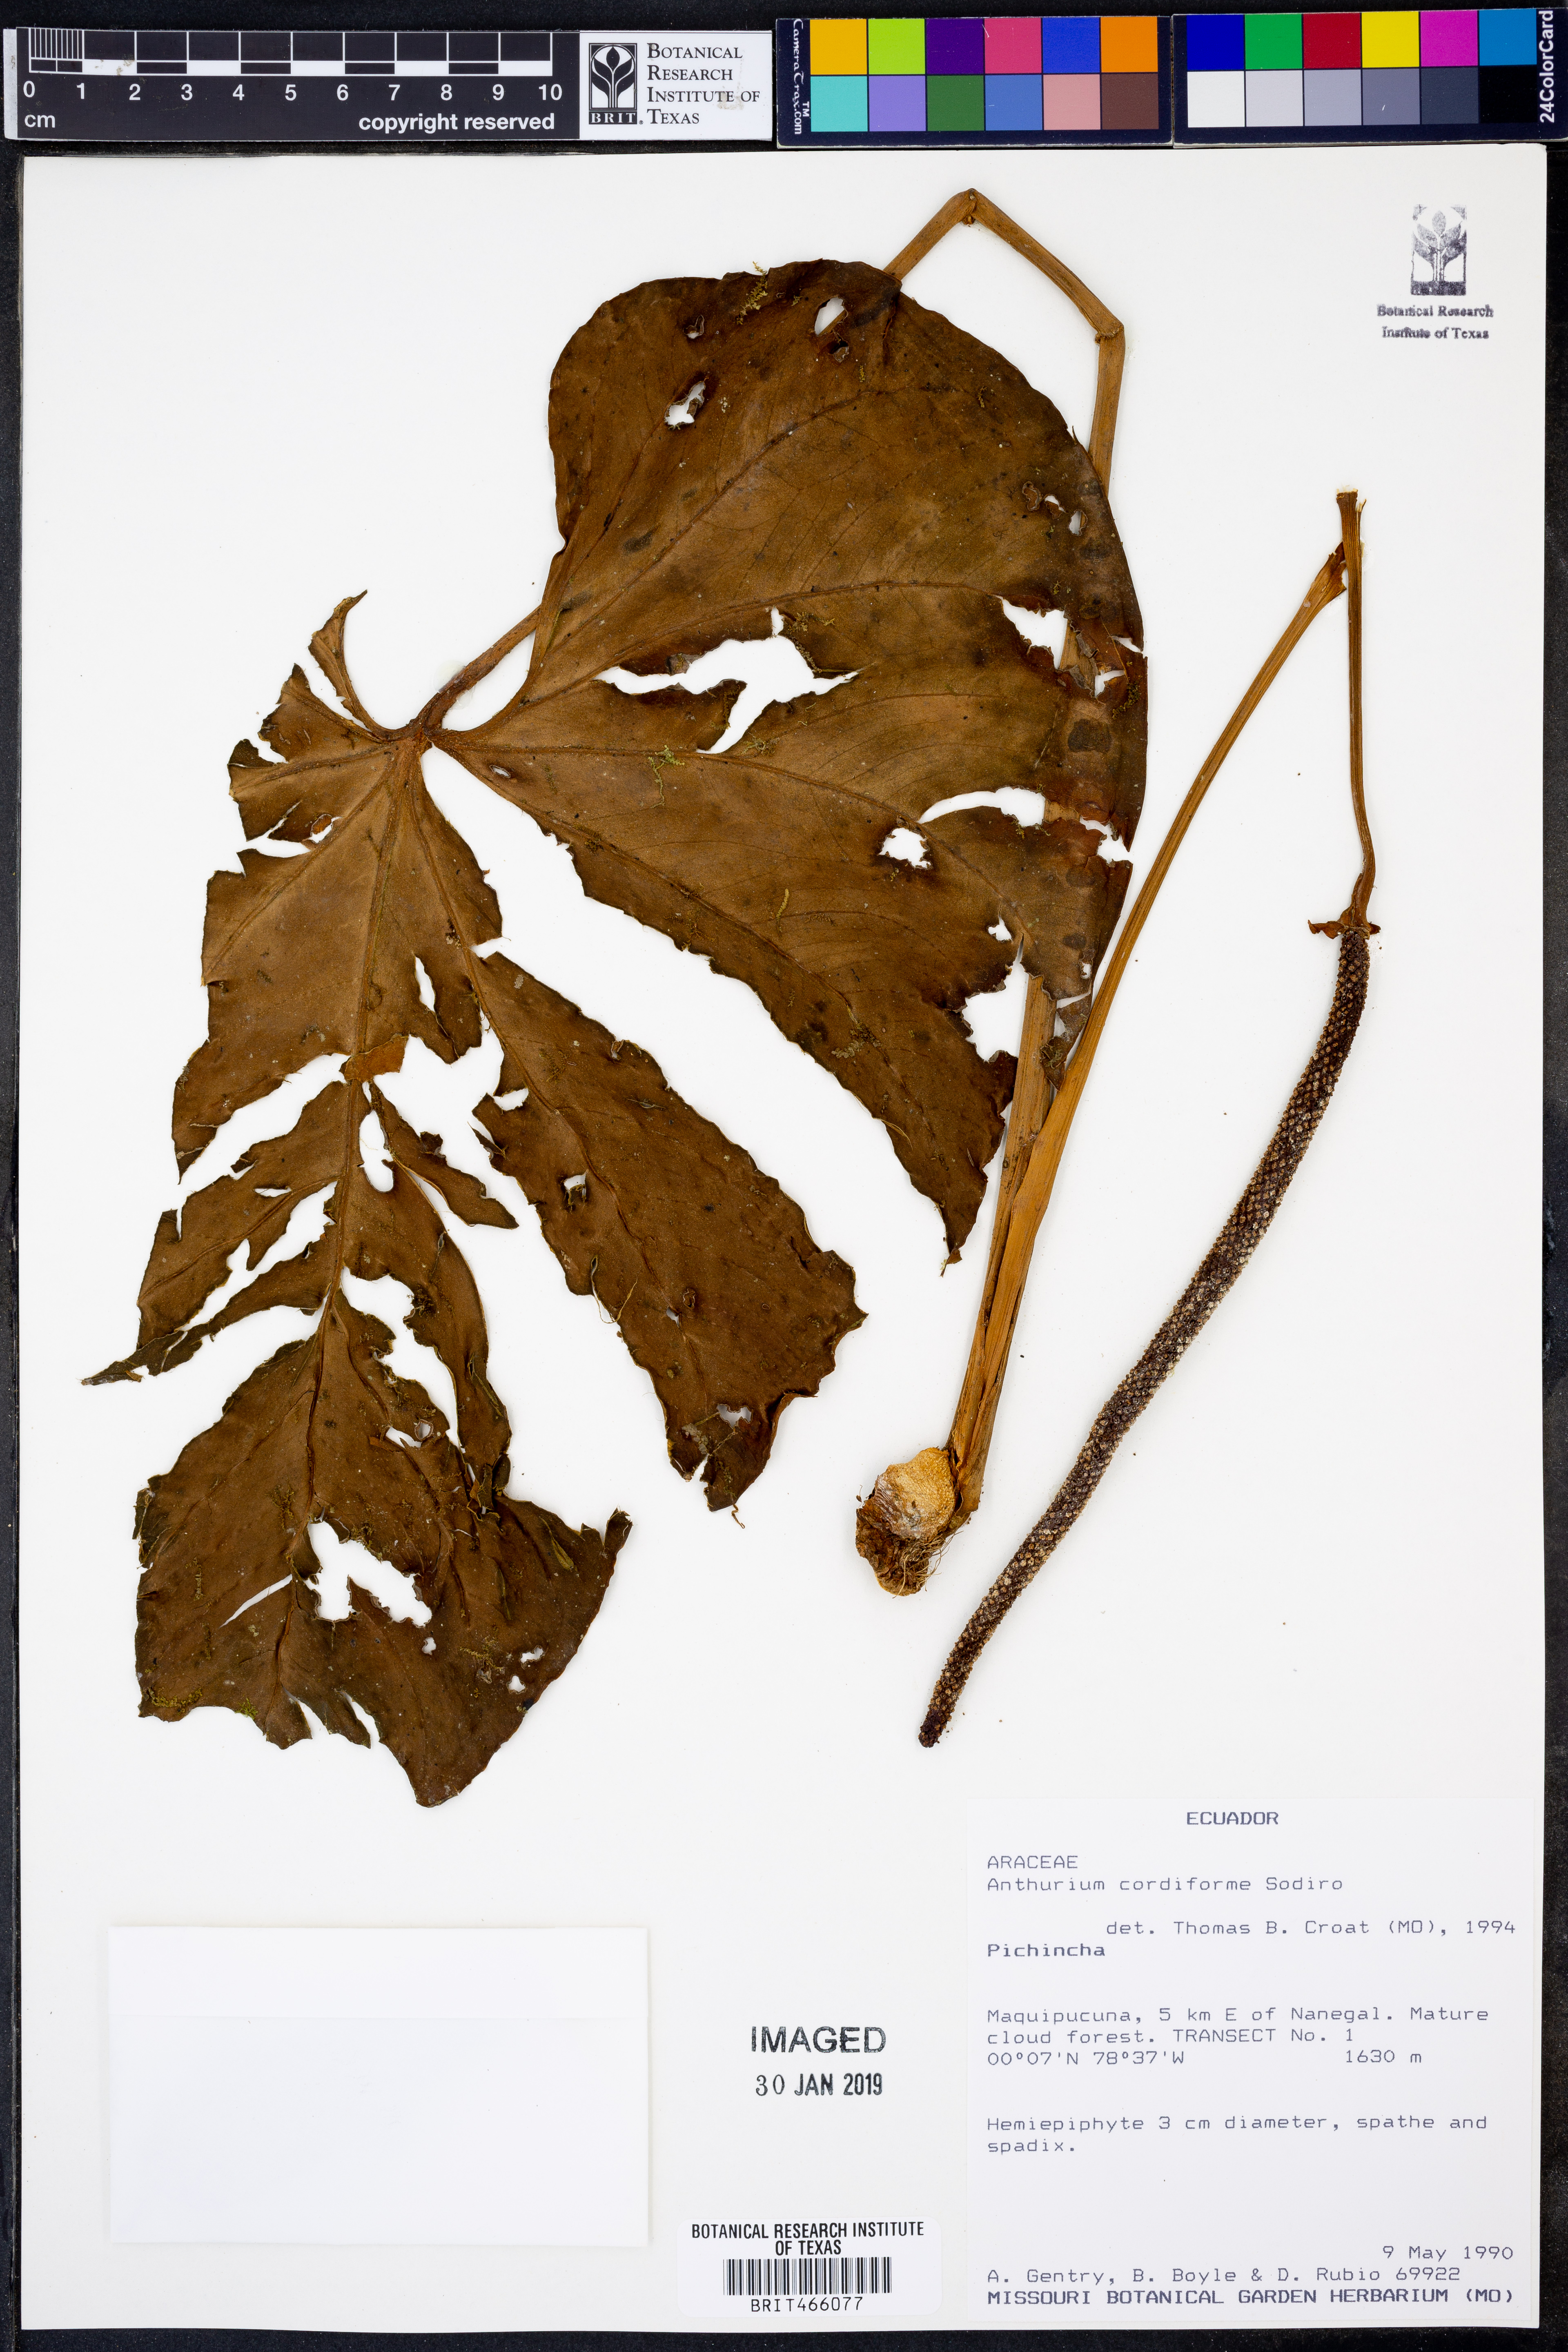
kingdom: Plantae
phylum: Tracheophyta
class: Liliopsida
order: Alismatales
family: Araceae
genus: Anthurium
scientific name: Anthurium cordiforme
